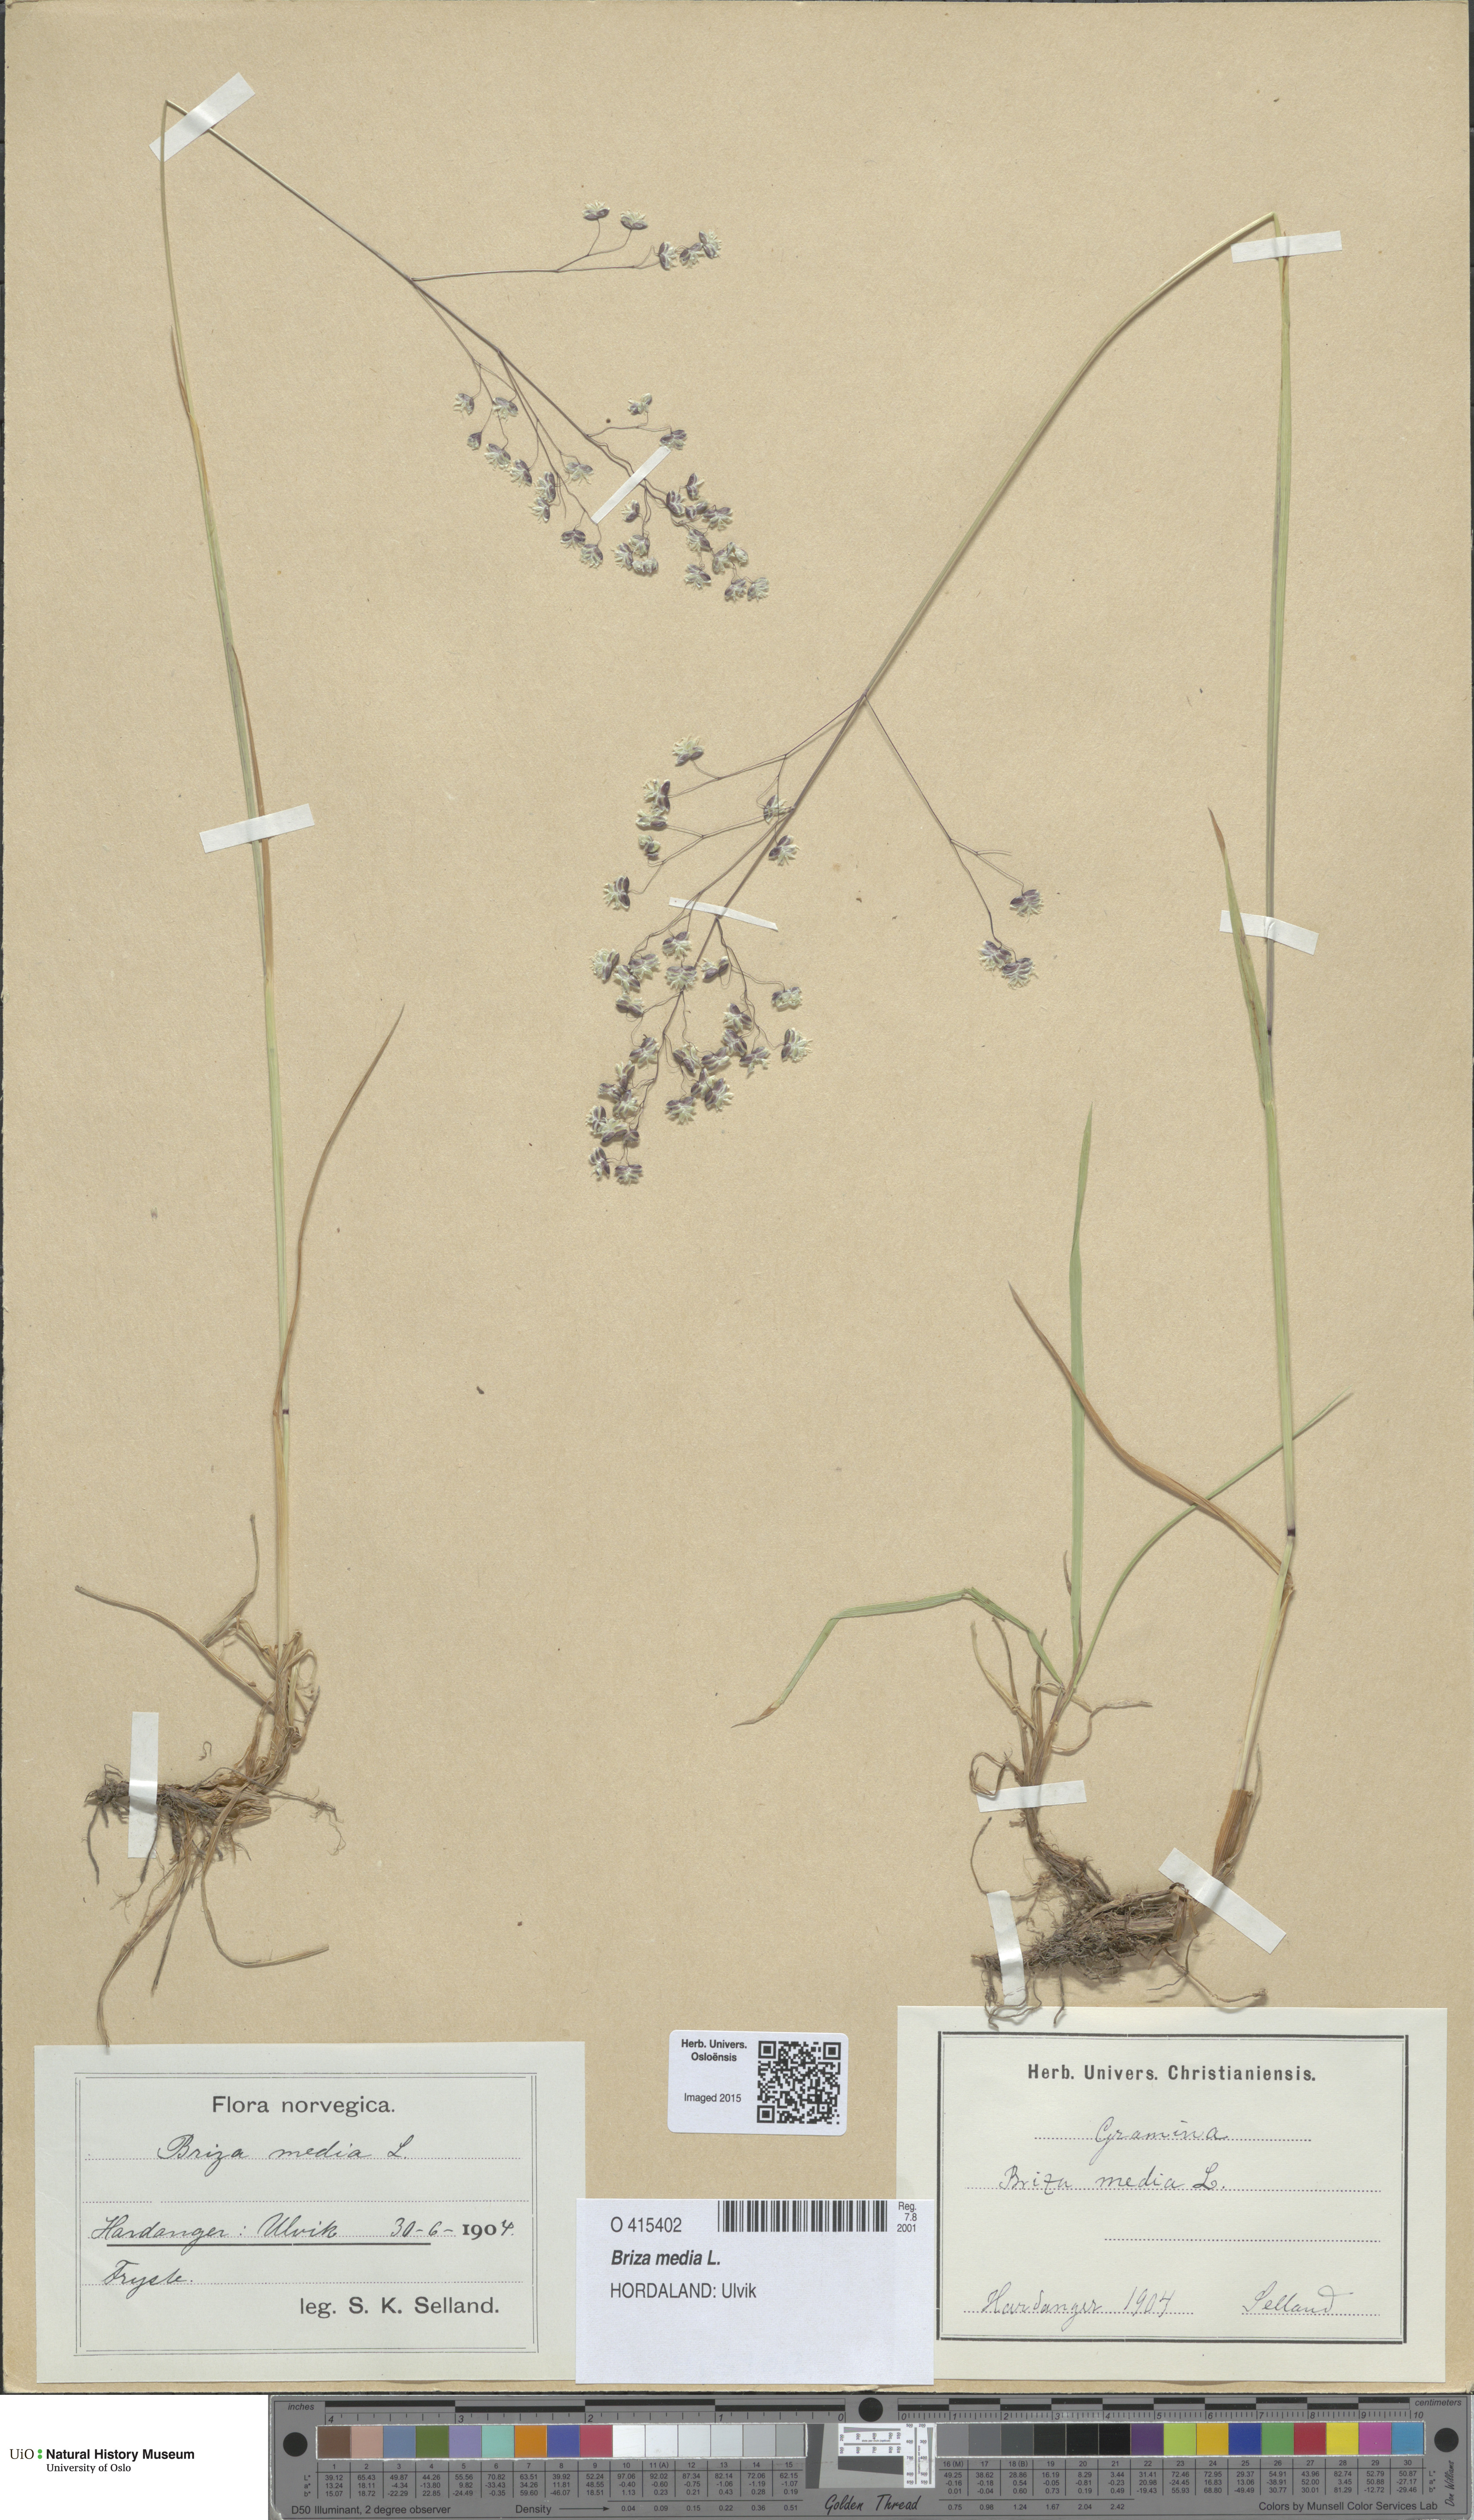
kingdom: Plantae
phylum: Tracheophyta
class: Liliopsida
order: Poales
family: Poaceae
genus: Briza
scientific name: Briza media
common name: Quaking grass
